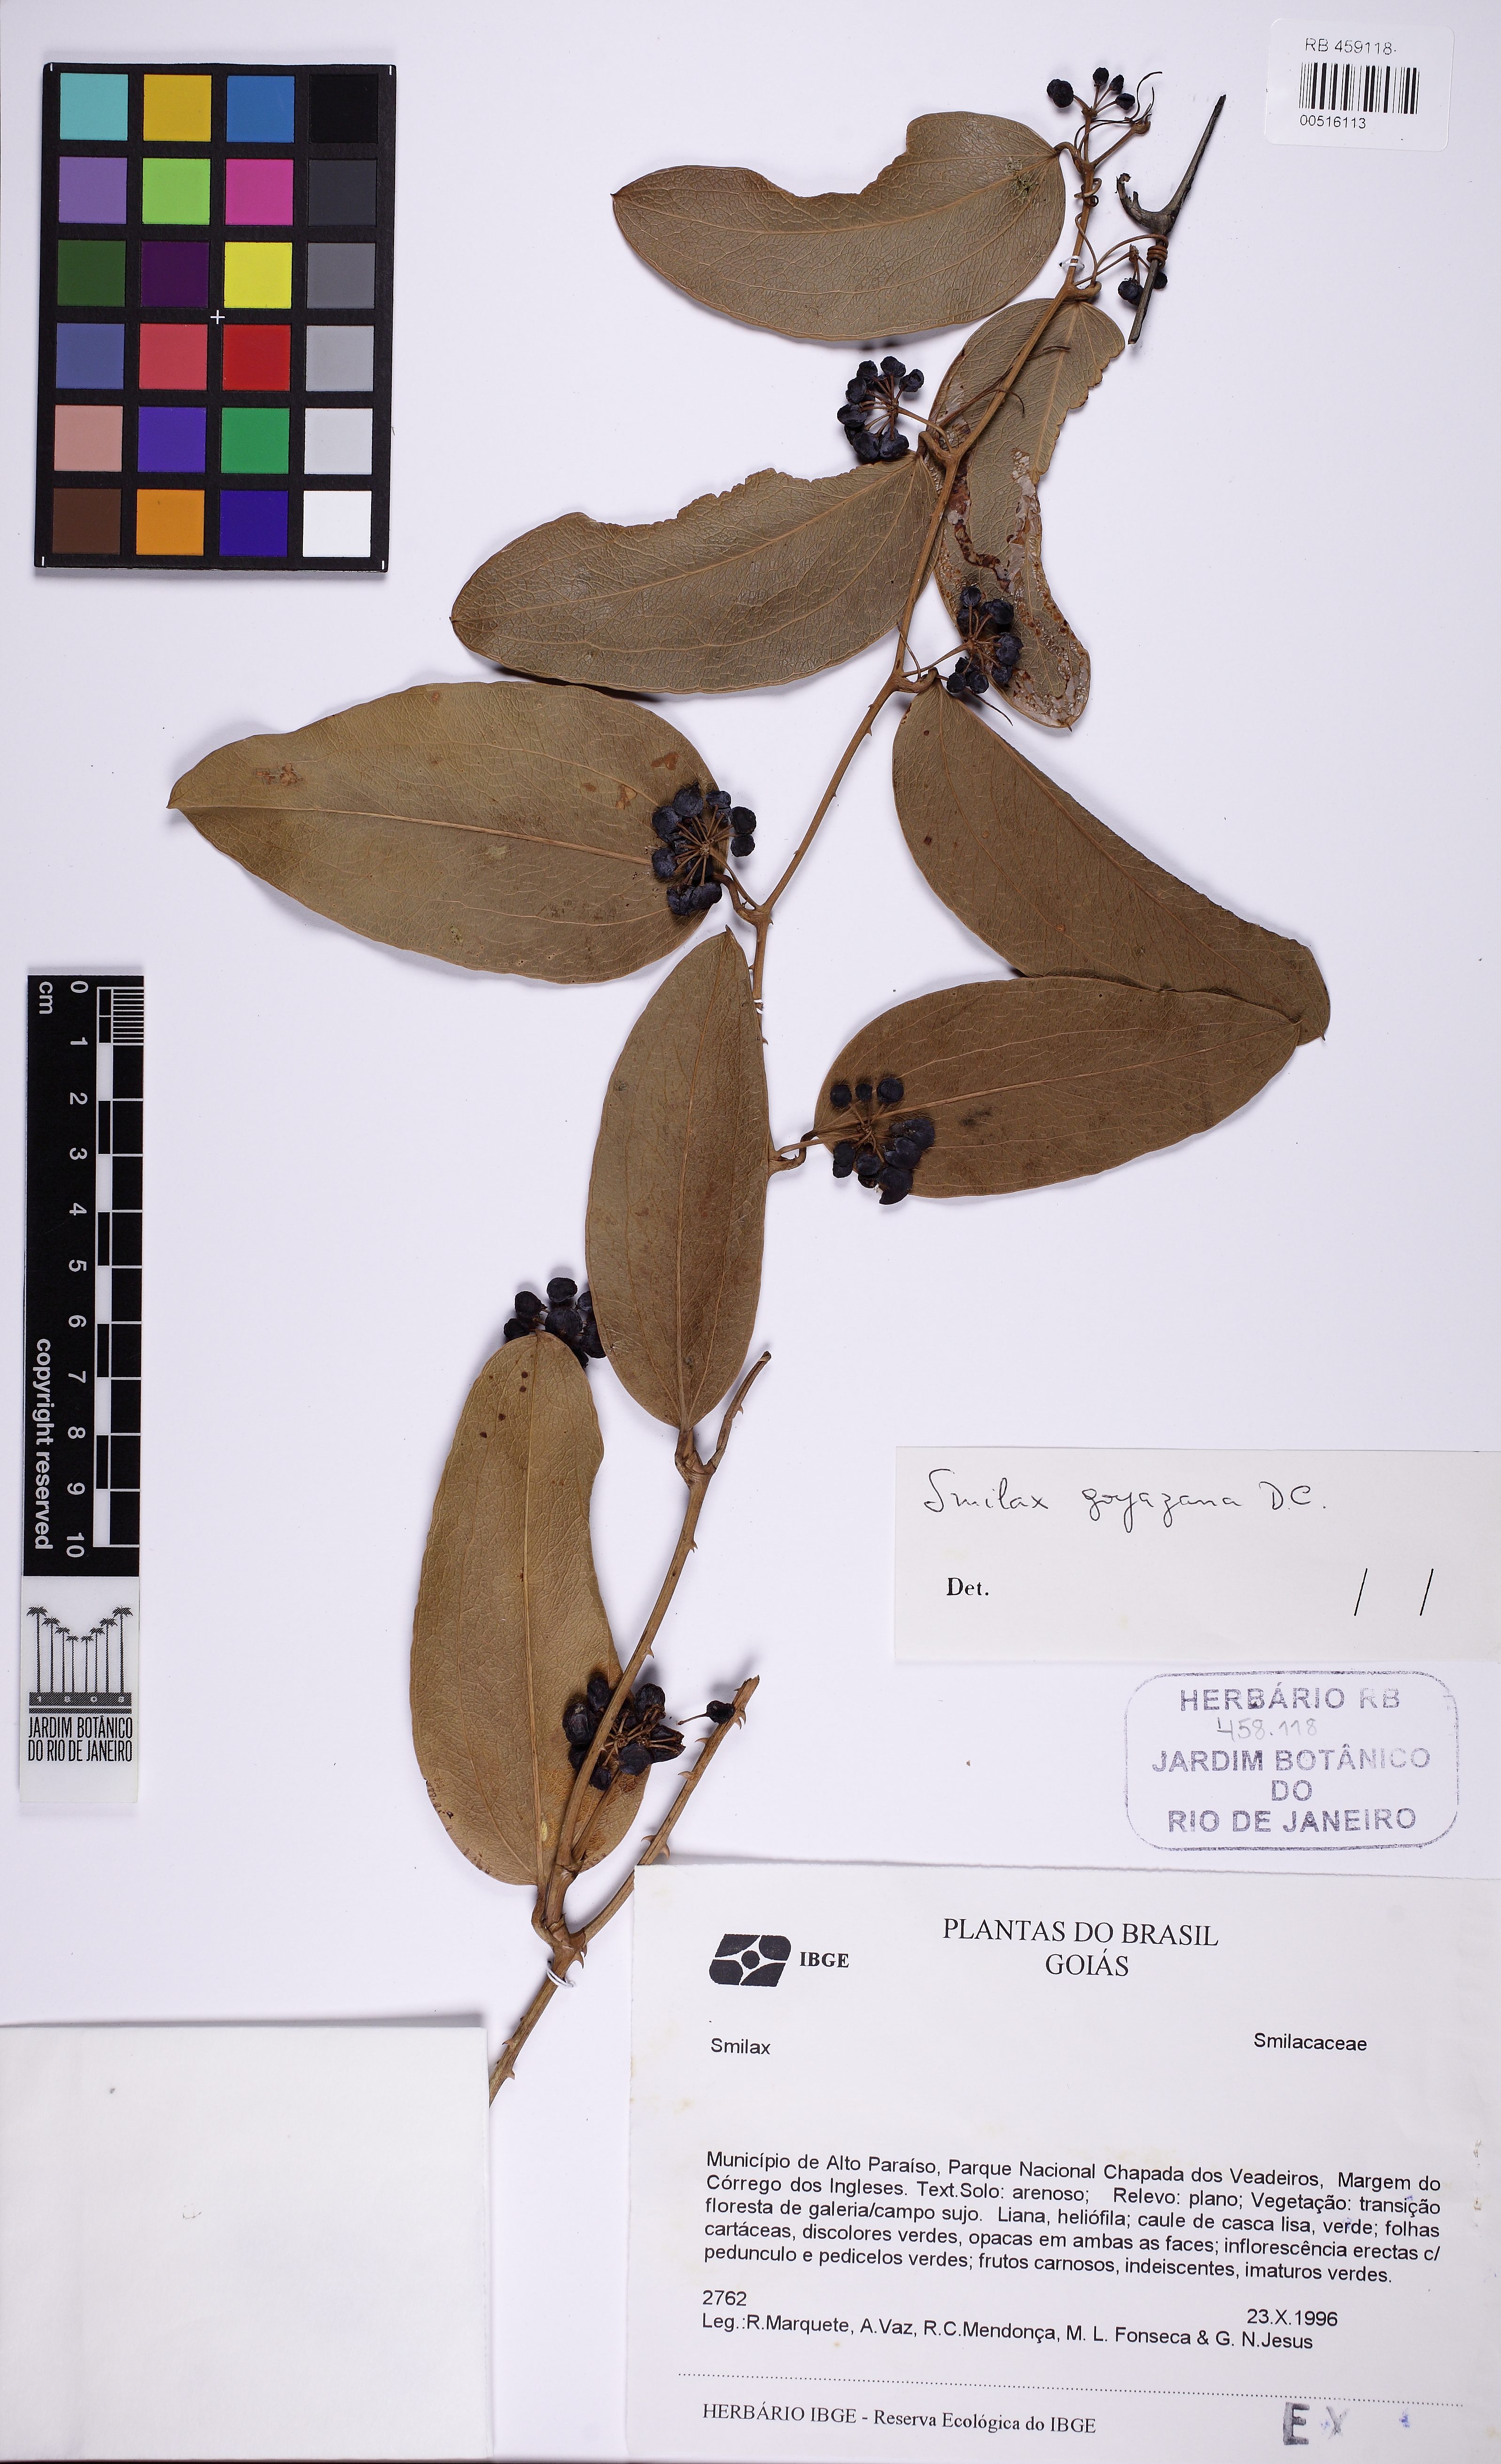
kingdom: Plantae
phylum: Tracheophyta
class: Liliopsida
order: Liliales
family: Smilacaceae
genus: Smilax
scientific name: Smilax goyazana
